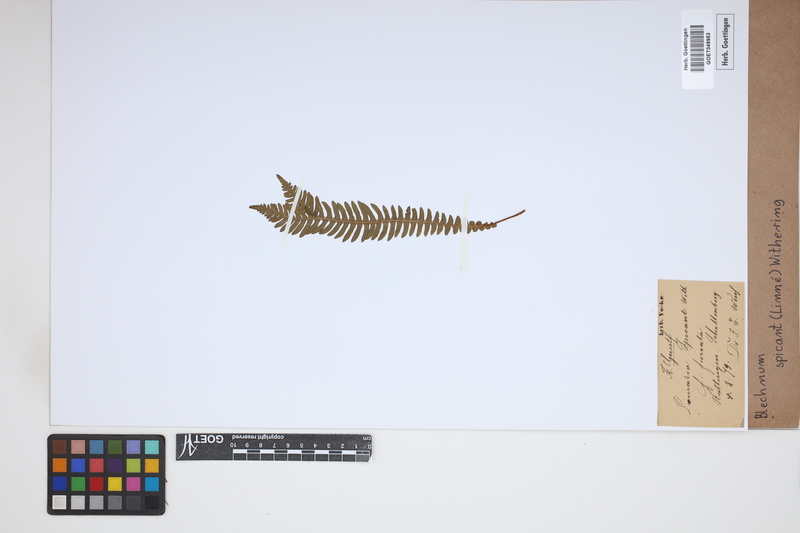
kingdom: Plantae
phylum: Tracheophyta
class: Polypodiopsida
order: Polypodiales
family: Blechnaceae
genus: Struthiopteris
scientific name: Struthiopteris spicant
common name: Deer fern
